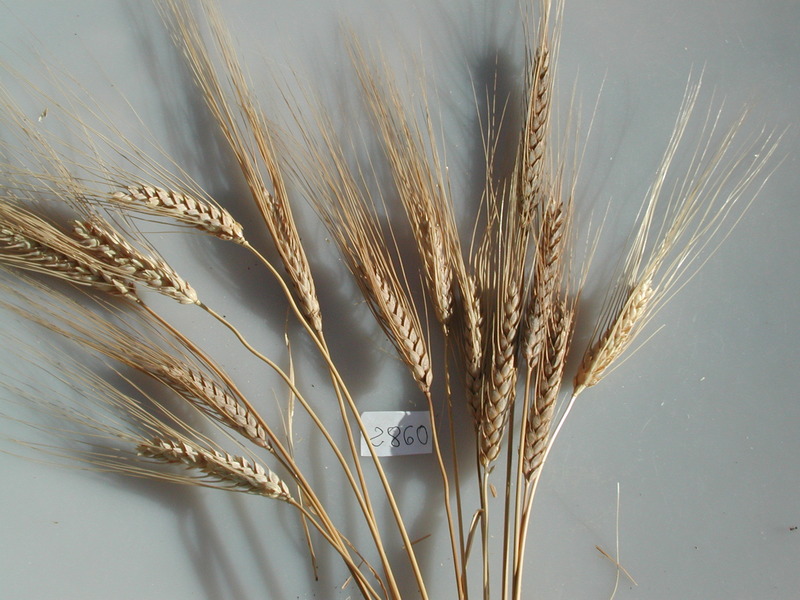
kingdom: Plantae
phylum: Tracheophyta
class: Liliopsida
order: Poales
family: Poaceae
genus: Triticum
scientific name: Triticum turgidum
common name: Wheat
